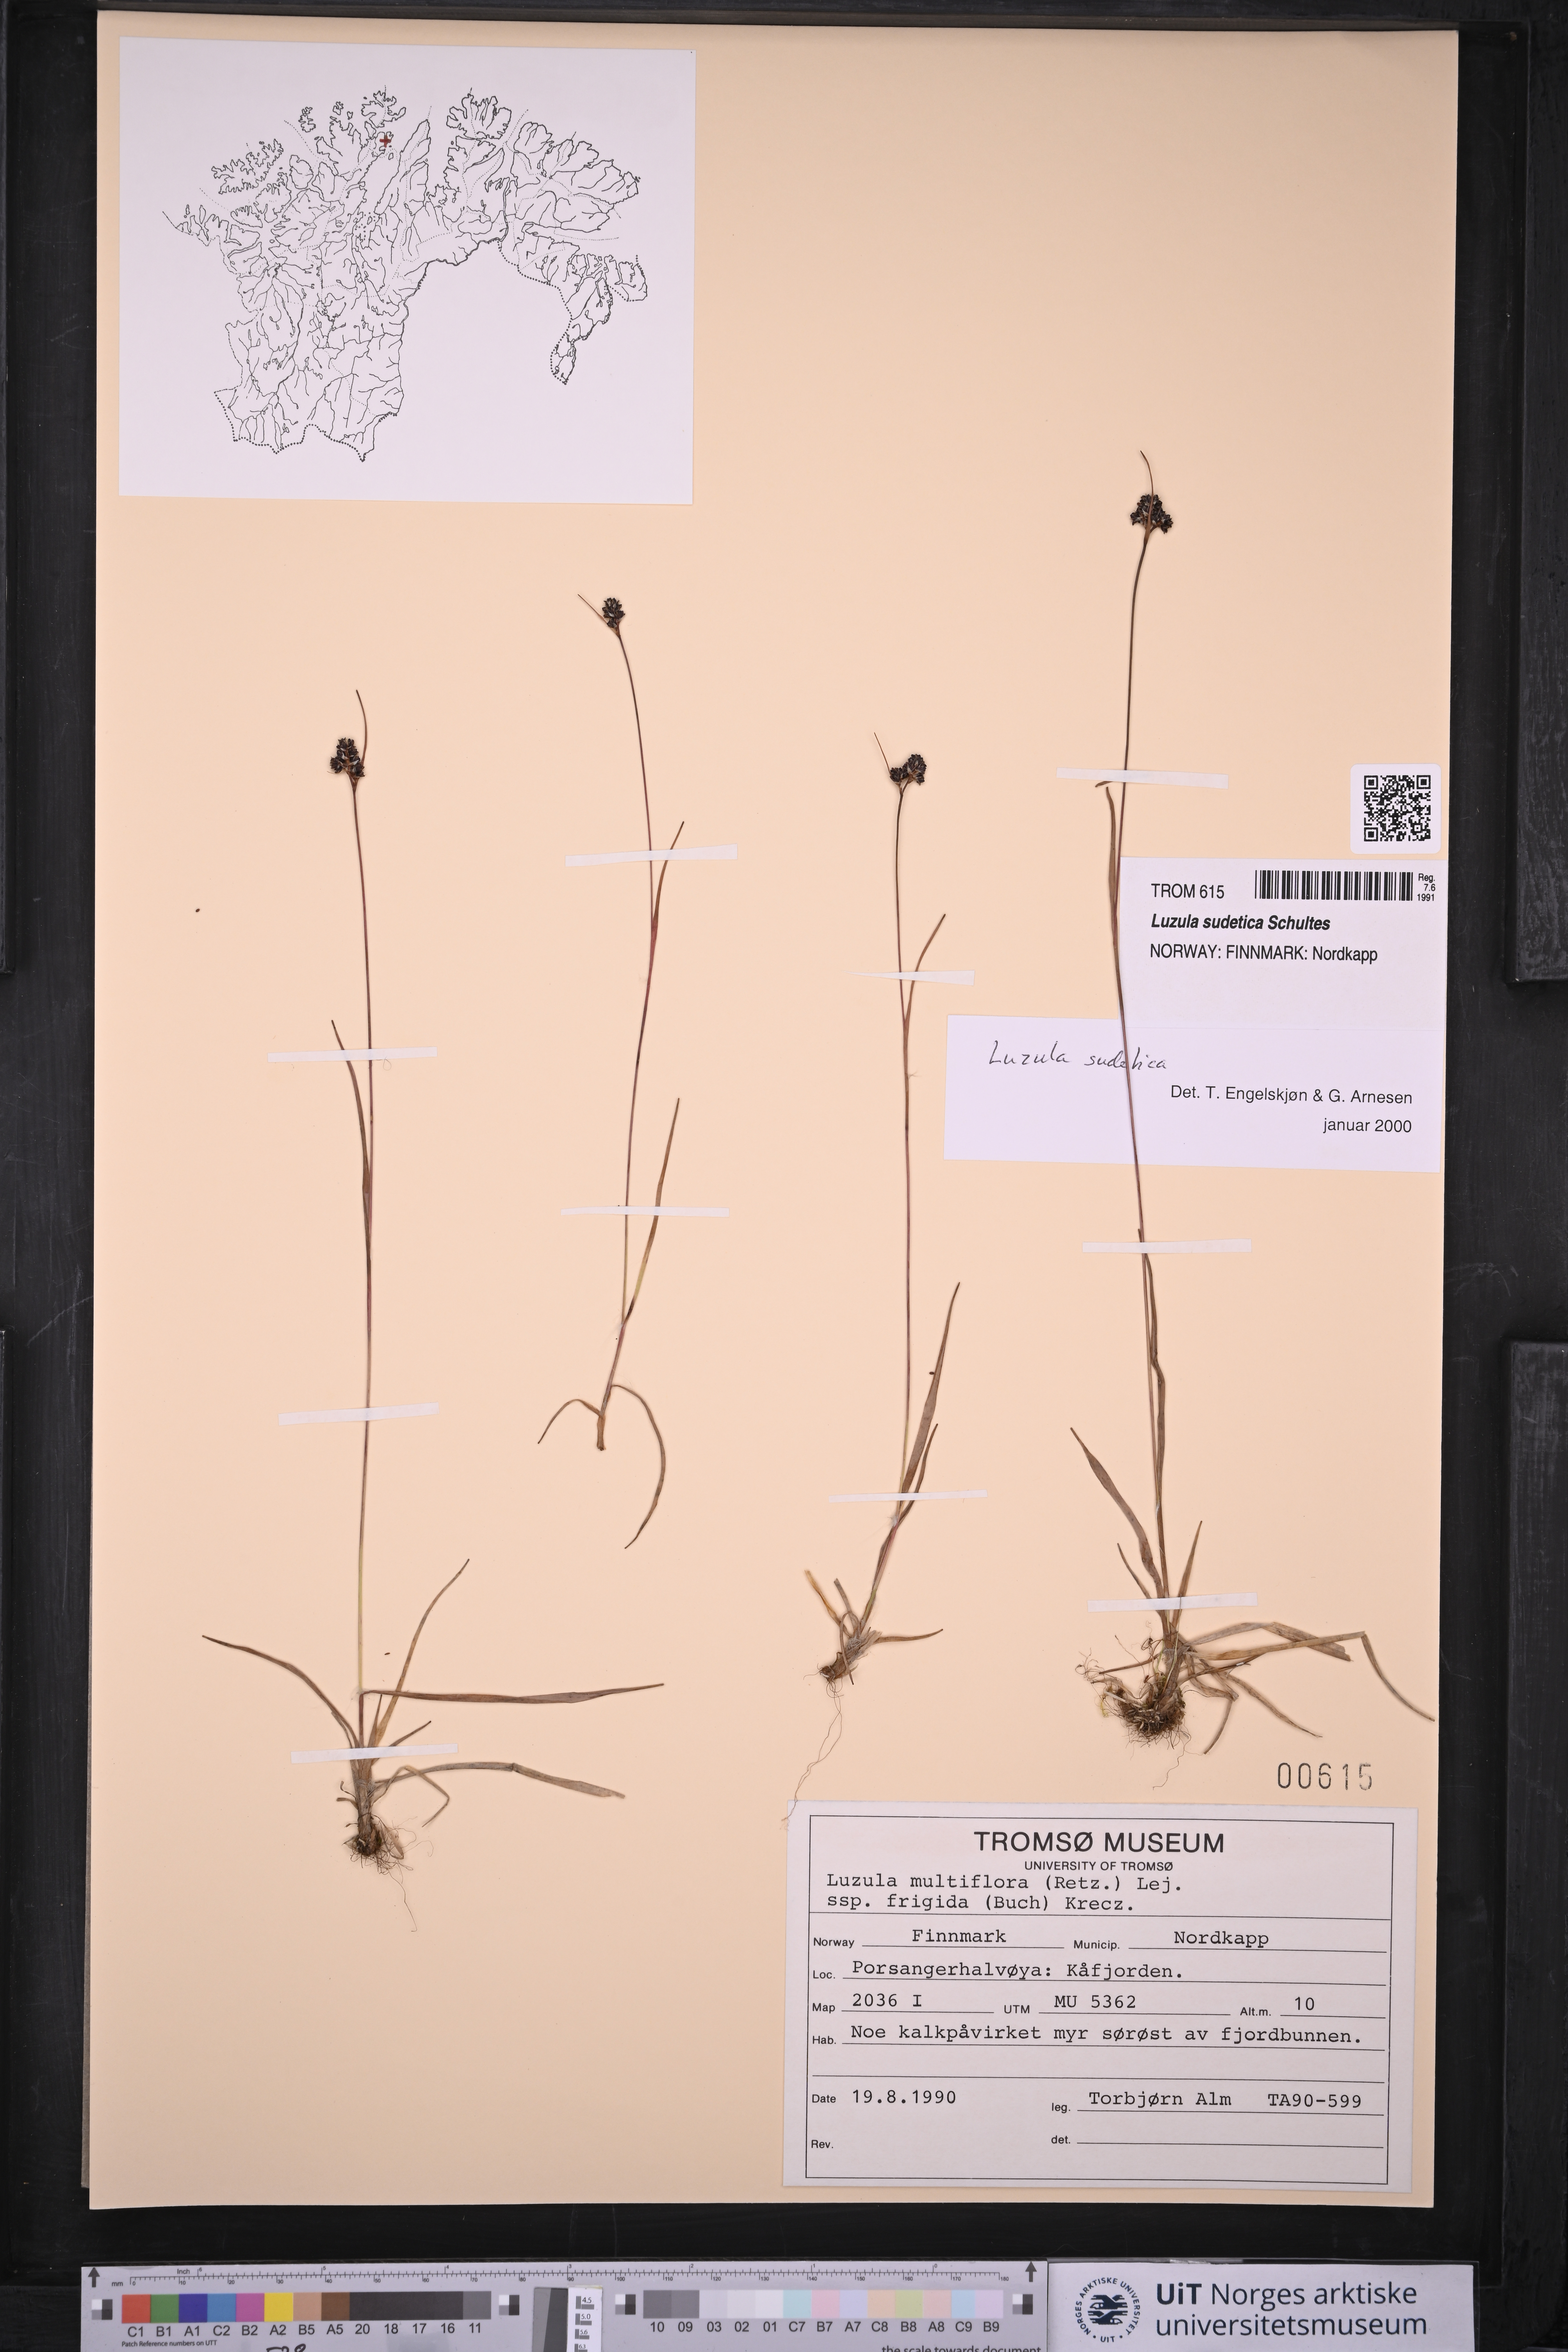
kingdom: Plantae
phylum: Tracheophyta
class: Liliopsida
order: Poales
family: Juncaceae
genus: Luzula
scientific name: Luzula sudetica
